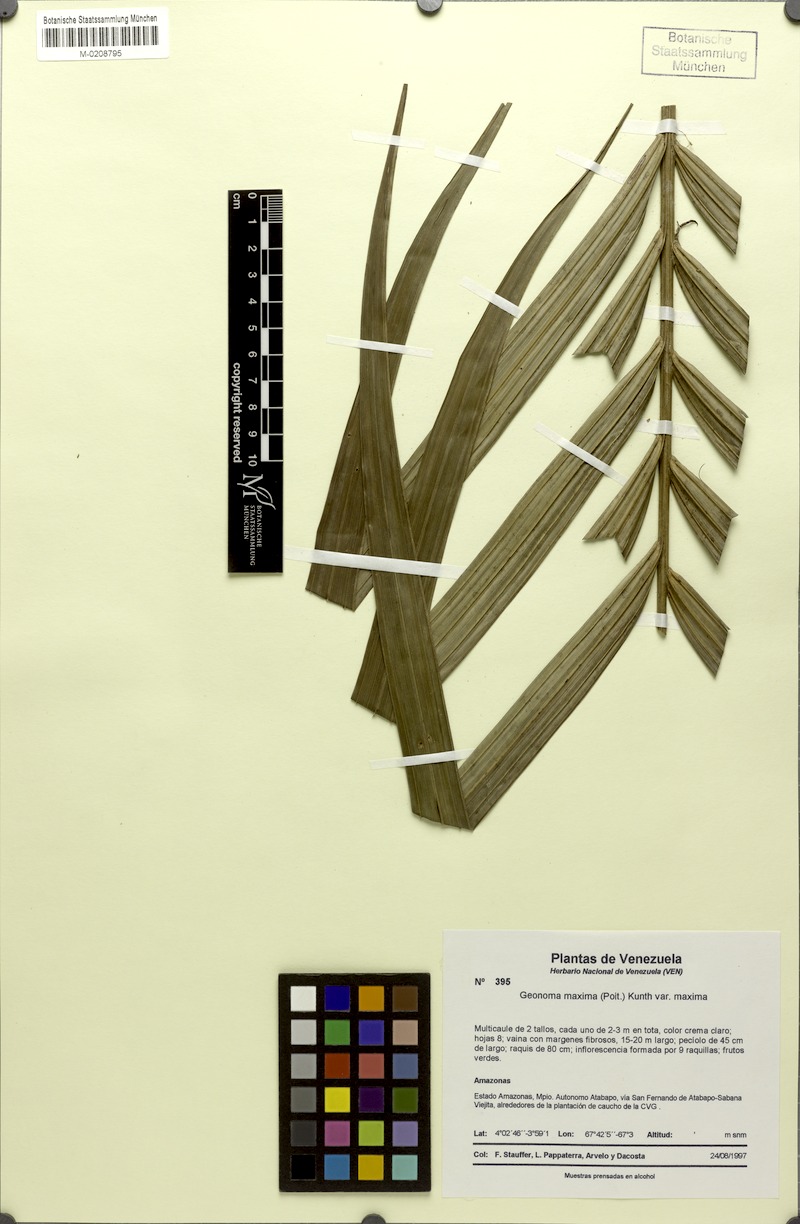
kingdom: Plantae
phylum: Tracheophyta
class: Liliopsida
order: Arecales
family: Arecaceae
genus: Geonoma
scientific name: Geonoma maxima
